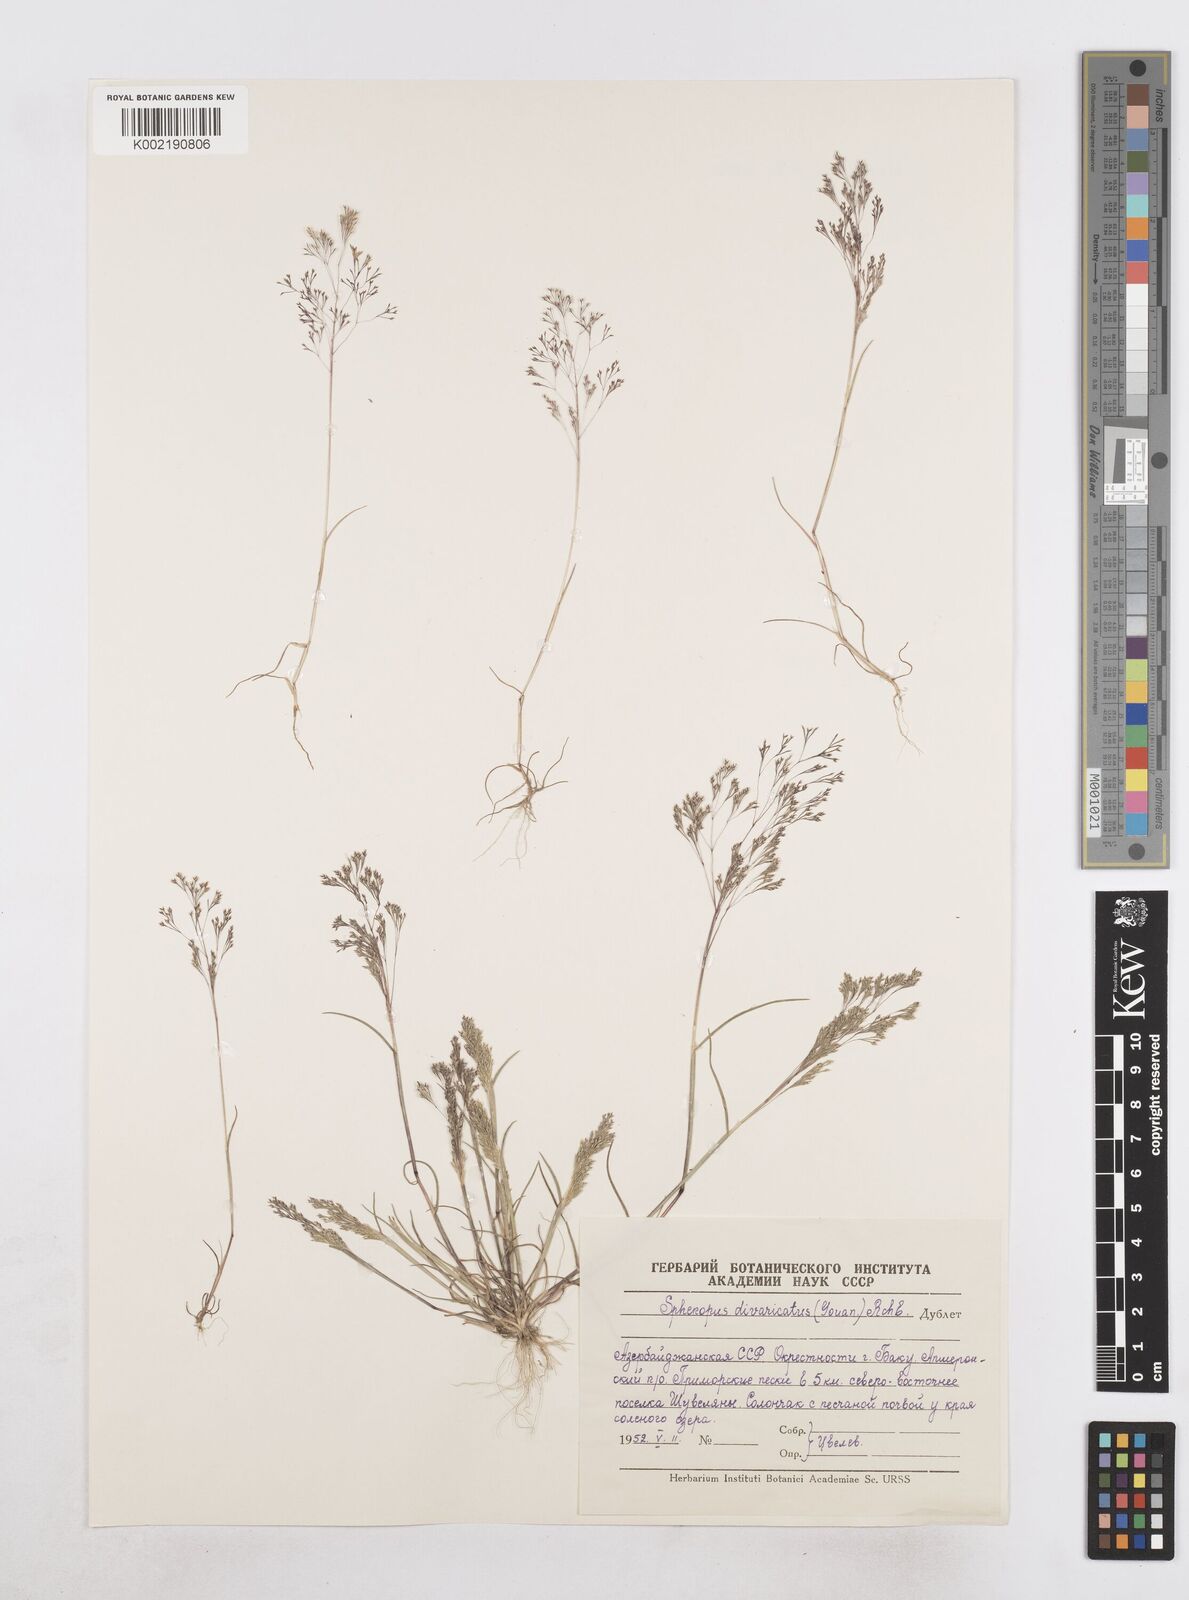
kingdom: Plantae
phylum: Tracheophyta
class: Liliopsida
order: Poales
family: Poaceae
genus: Sphenopus
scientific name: Sphenopus divaricatus
